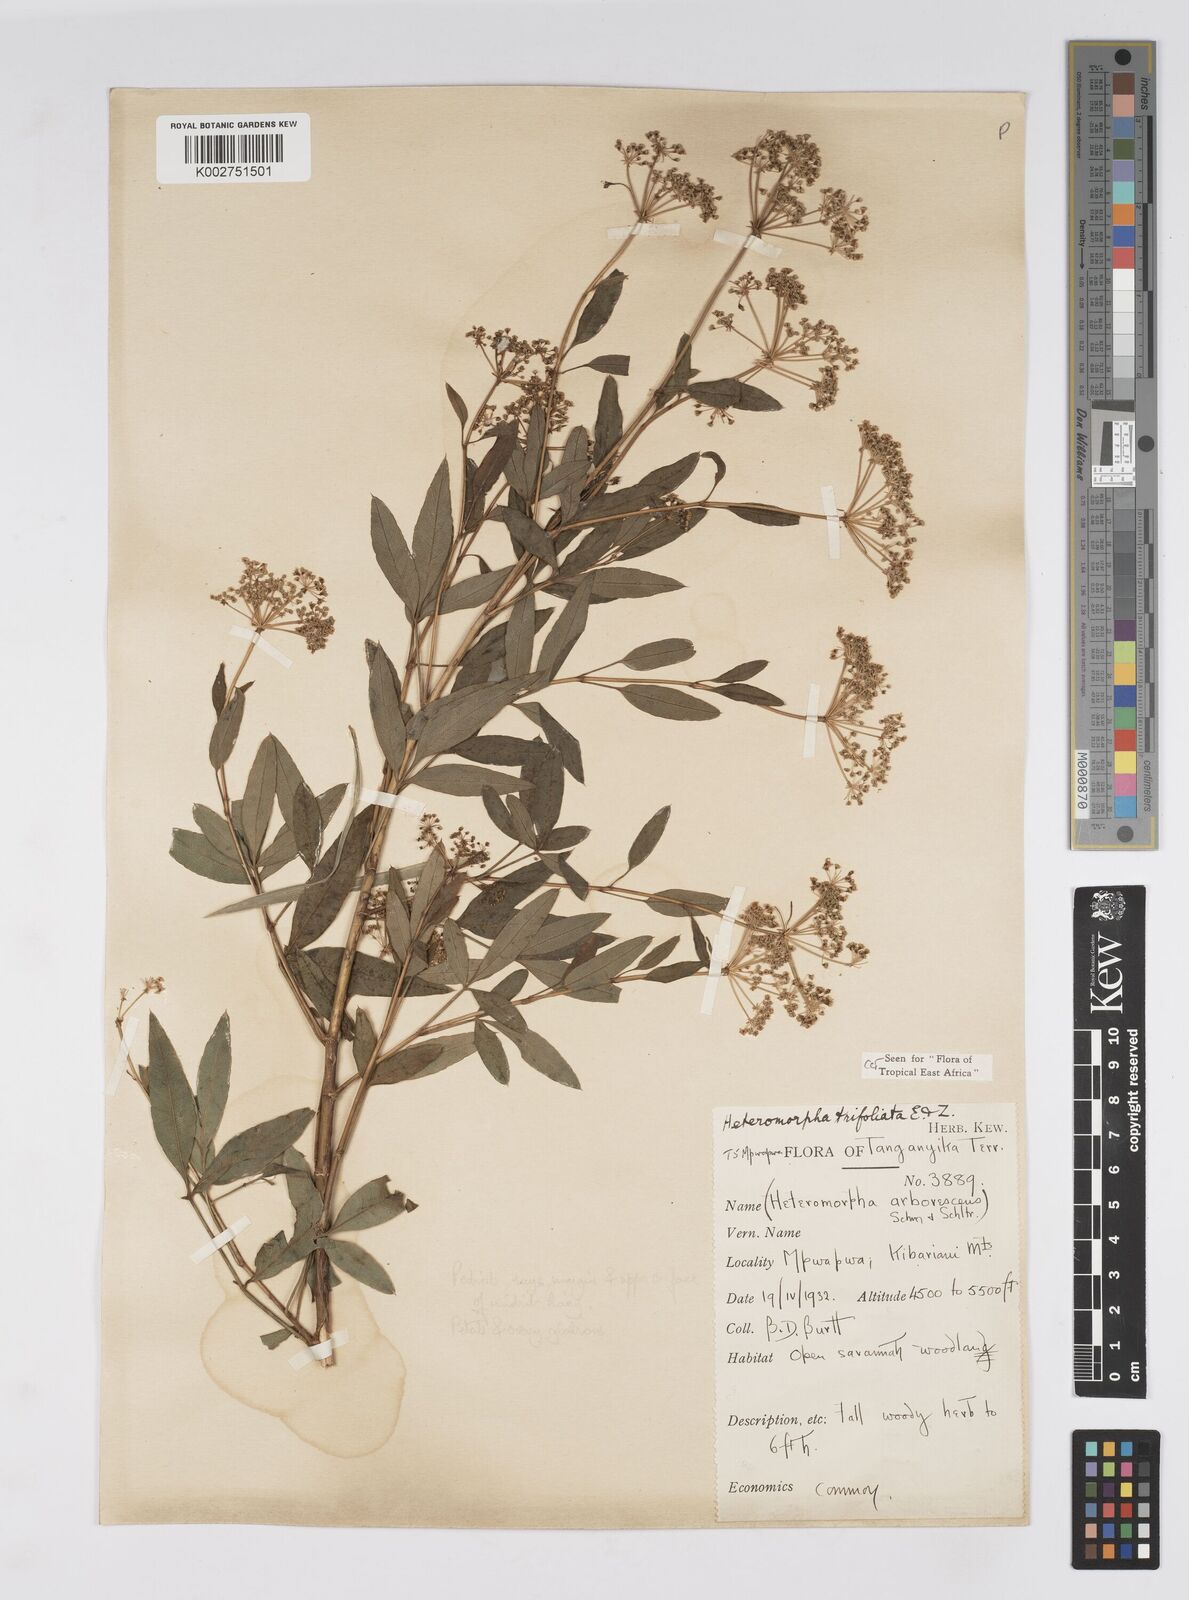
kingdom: Plantae
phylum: Tracheophyta
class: Magnoliopsida
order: Apiales
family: Apiaceae
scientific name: Apiaceae
